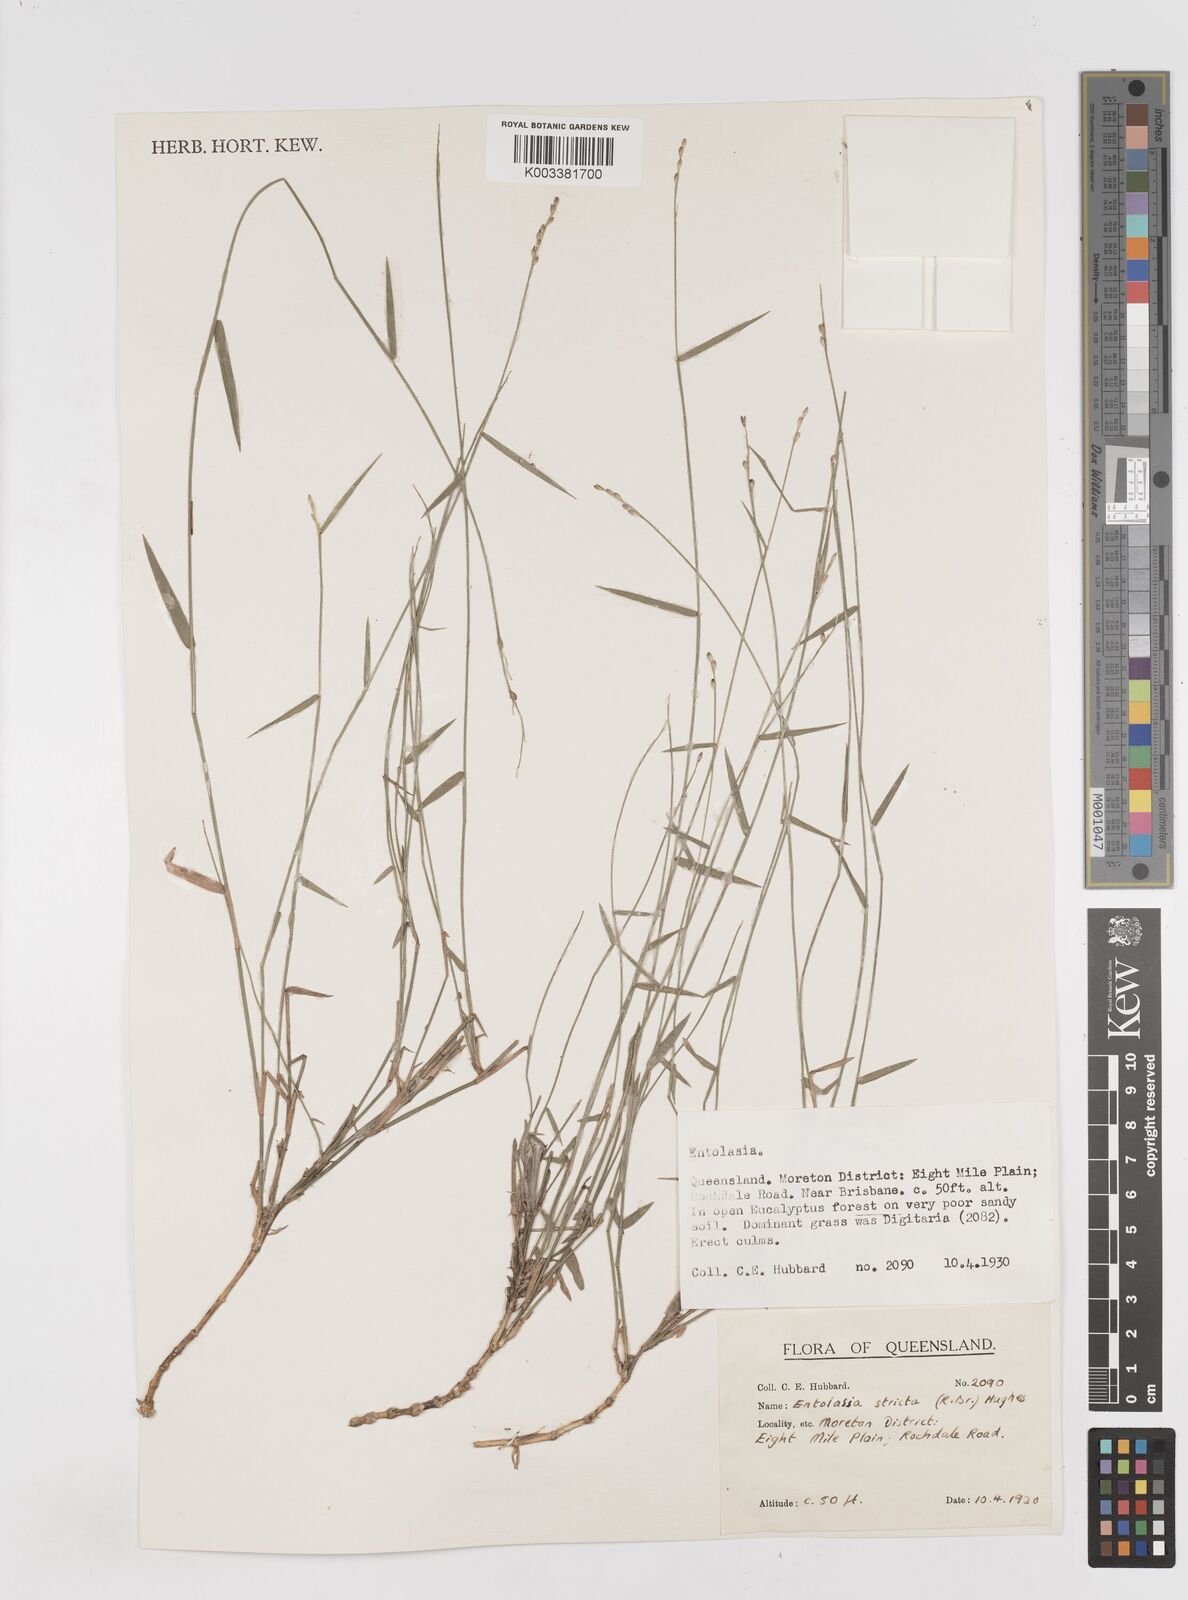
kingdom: Plantae
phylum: Tracheophyta
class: Liliopsida
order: Poales
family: Poaceae
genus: Entolasia
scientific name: Entolasia stricta
